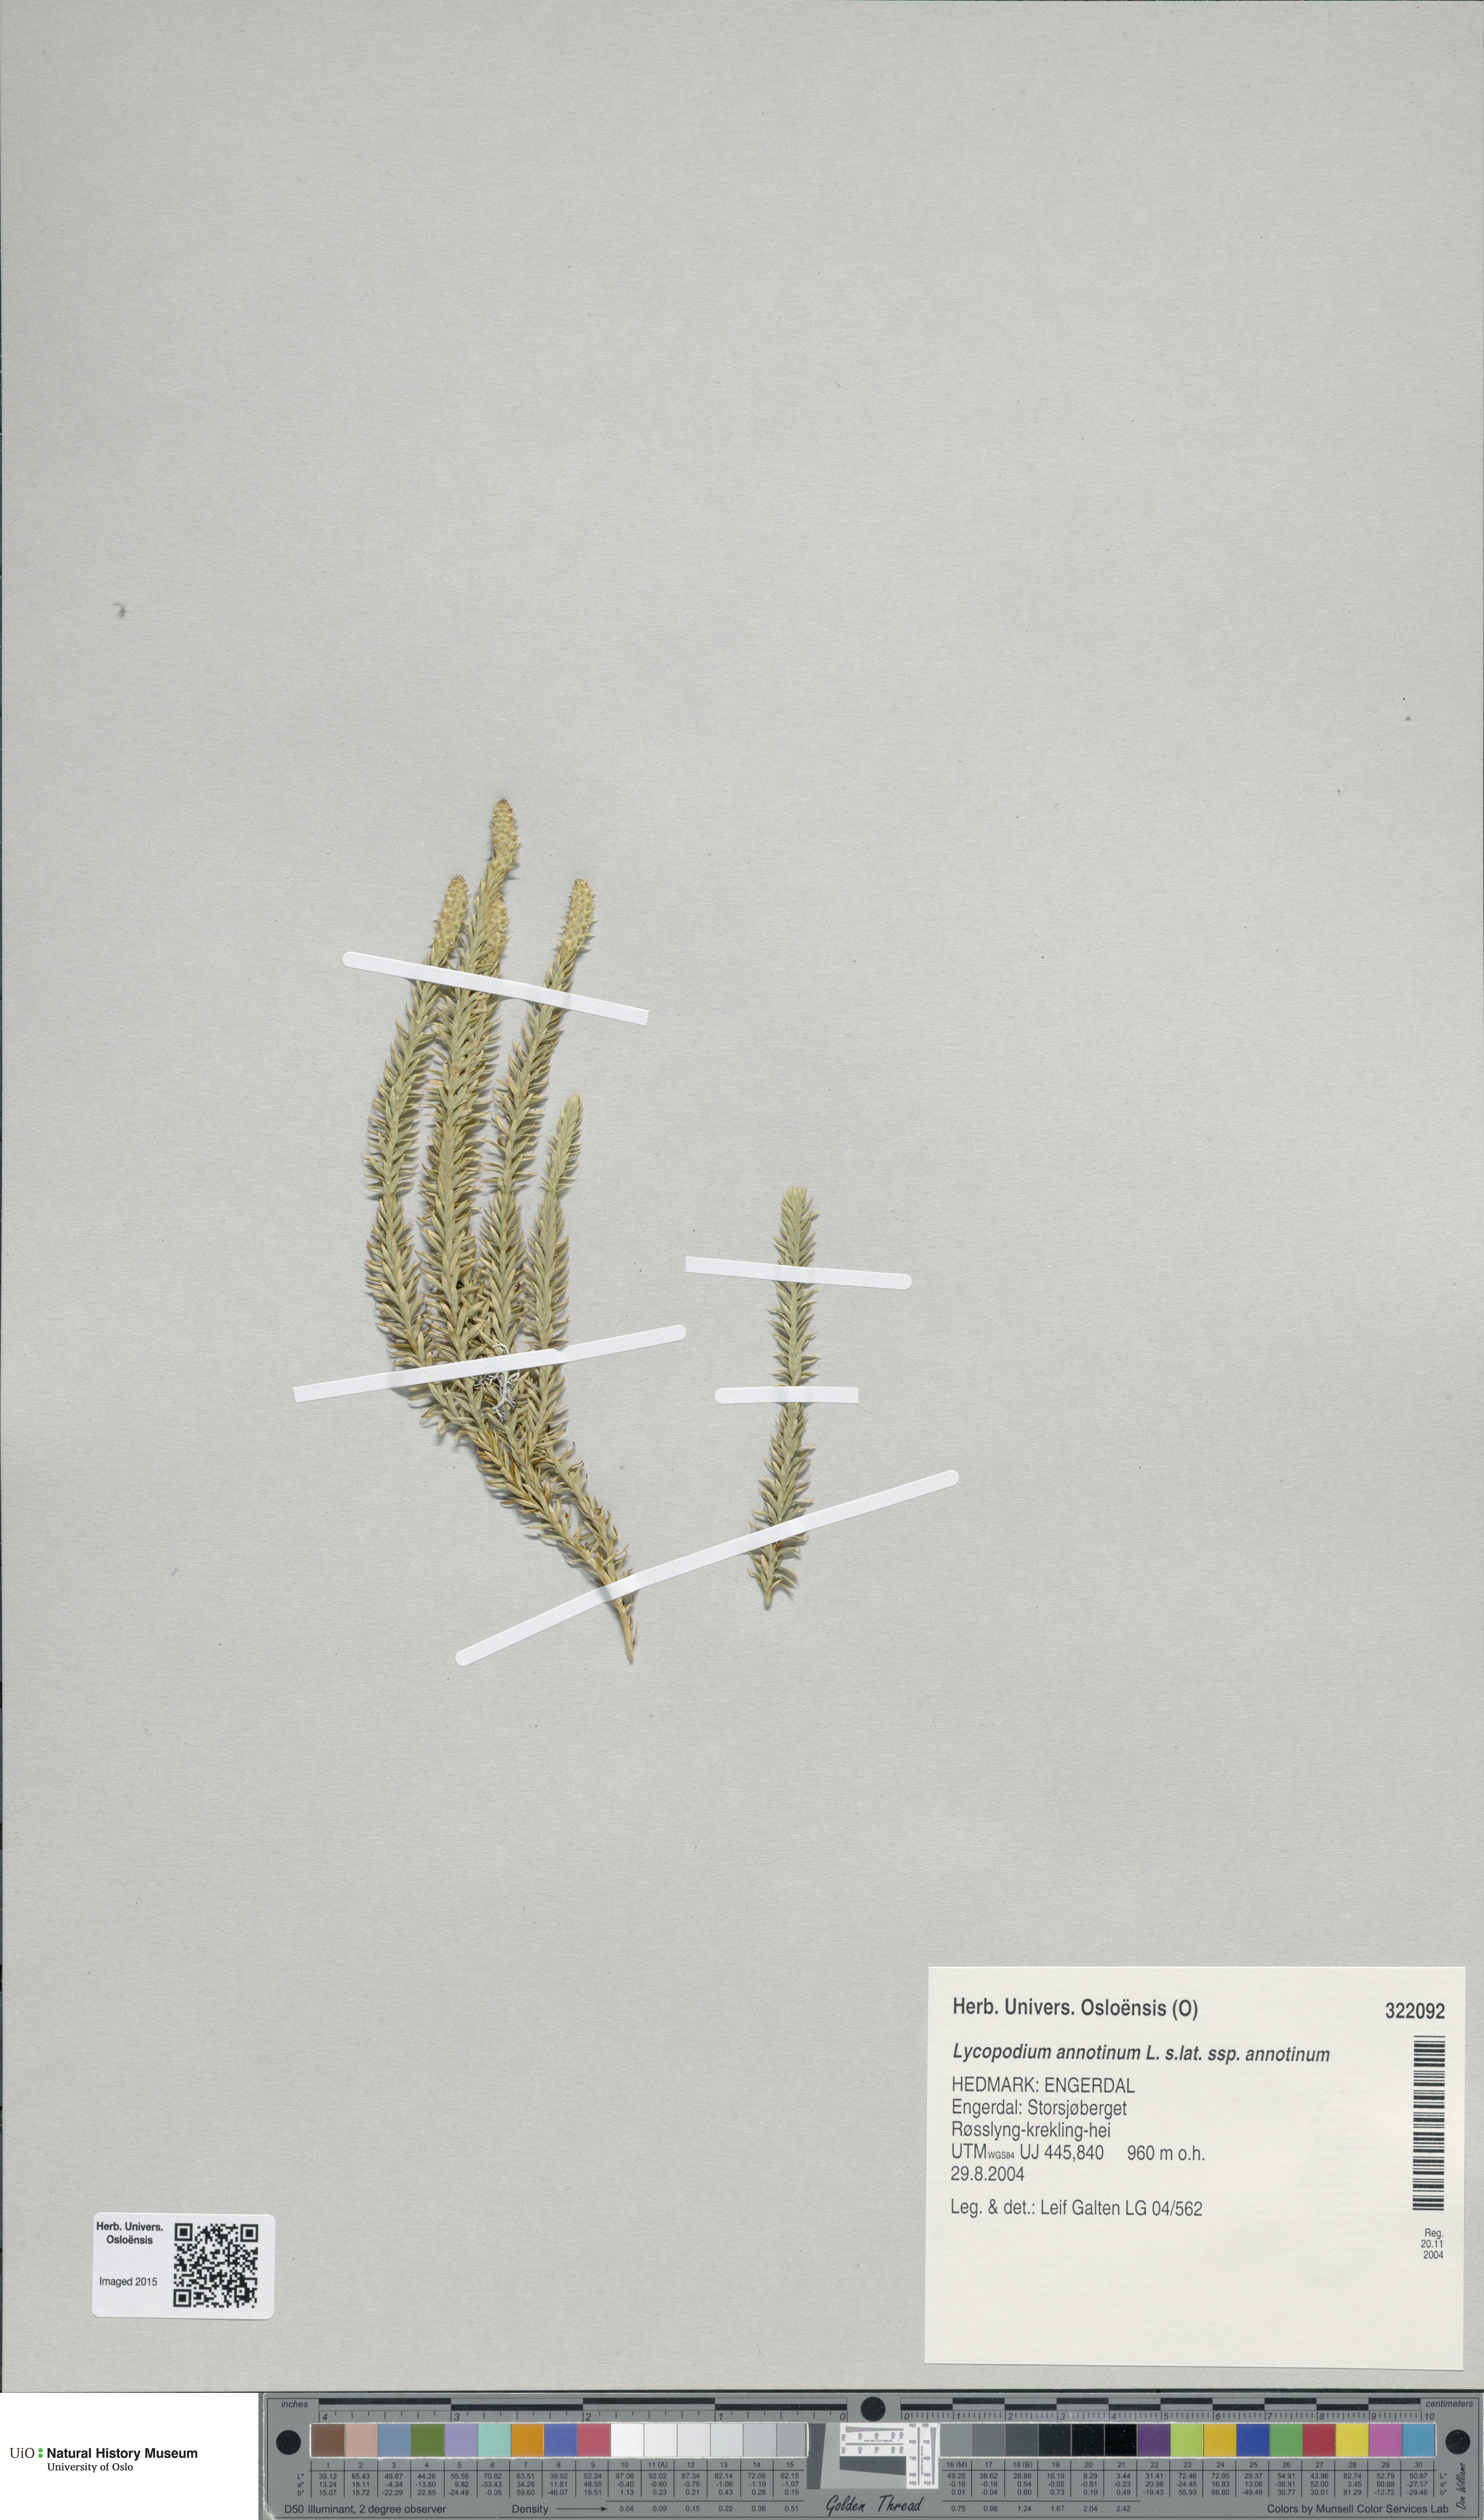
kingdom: Plantae
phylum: Tracheophyta
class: Lycopodiopsida
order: Lycopodiales
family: Lycopodiaceae
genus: Spinulum
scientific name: Spinulum annotinum
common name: Interrupted club-moss
